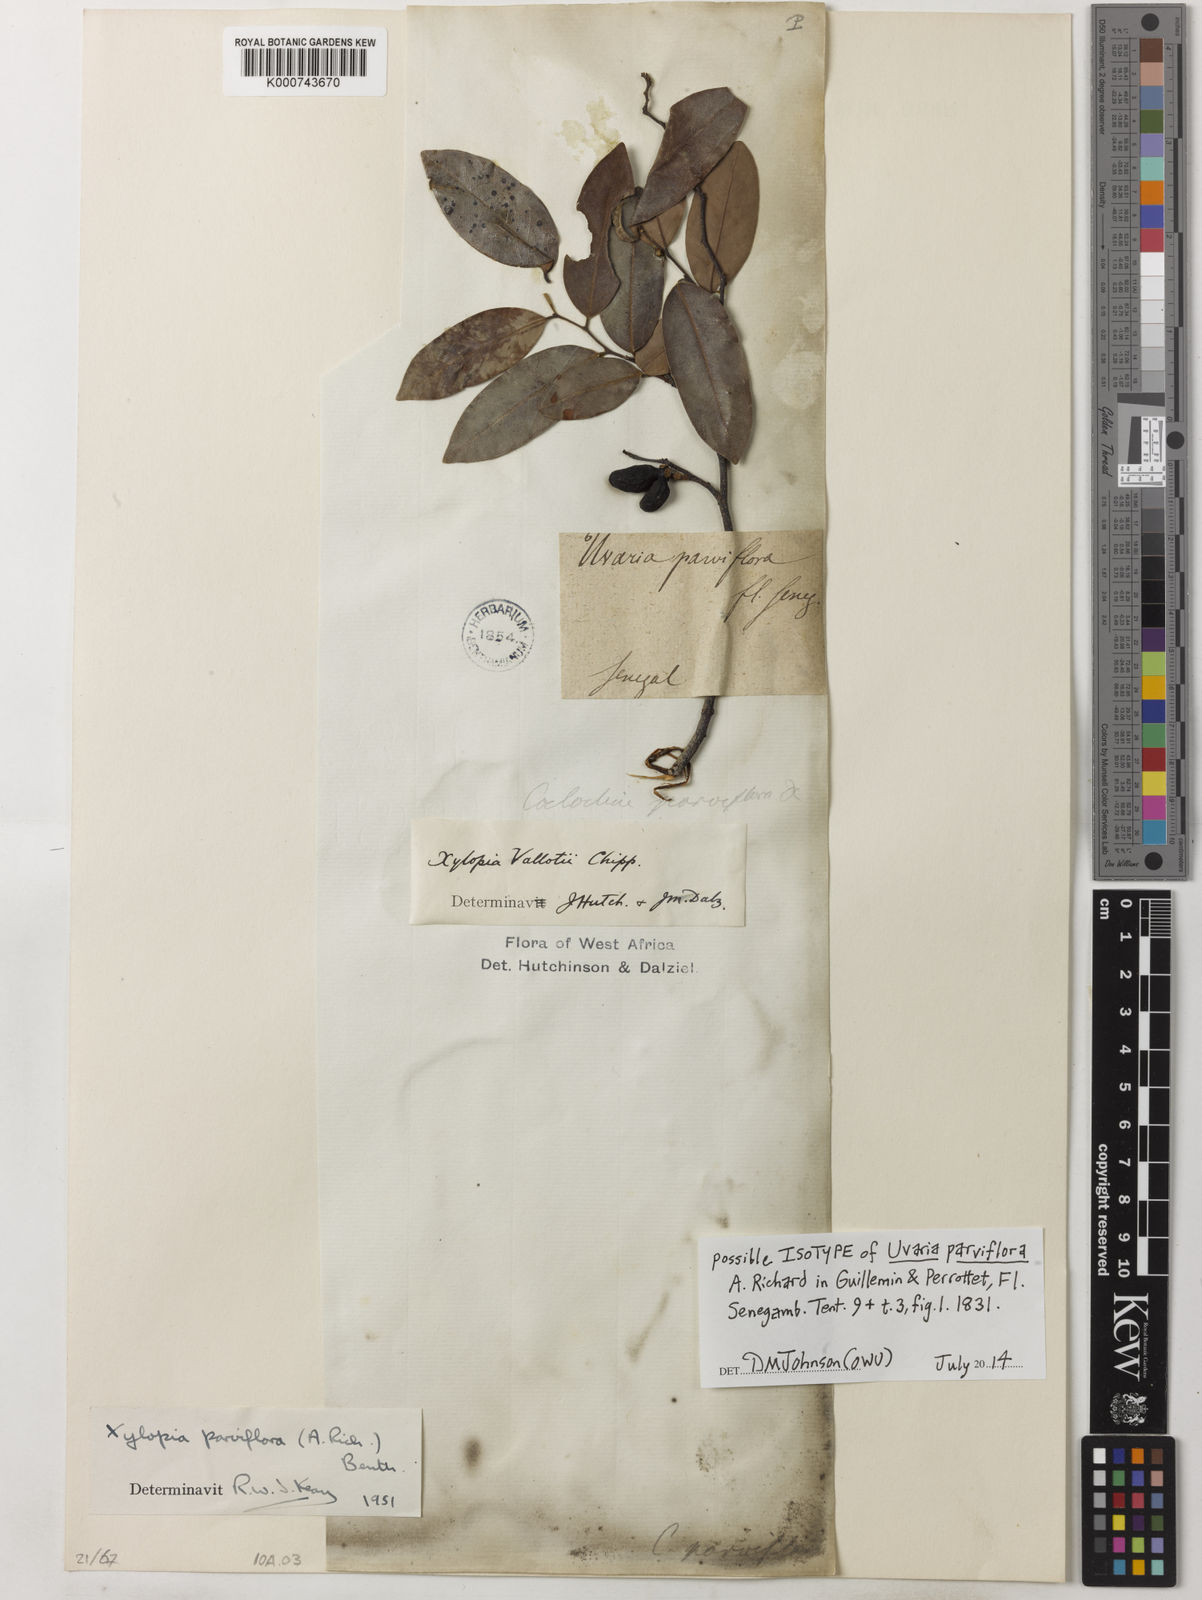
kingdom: Plantae
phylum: Tracheophyta
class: Magnoliopsida
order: Magnoliales
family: Annonaceae
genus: Xylopia
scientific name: Xylopia parviflora
